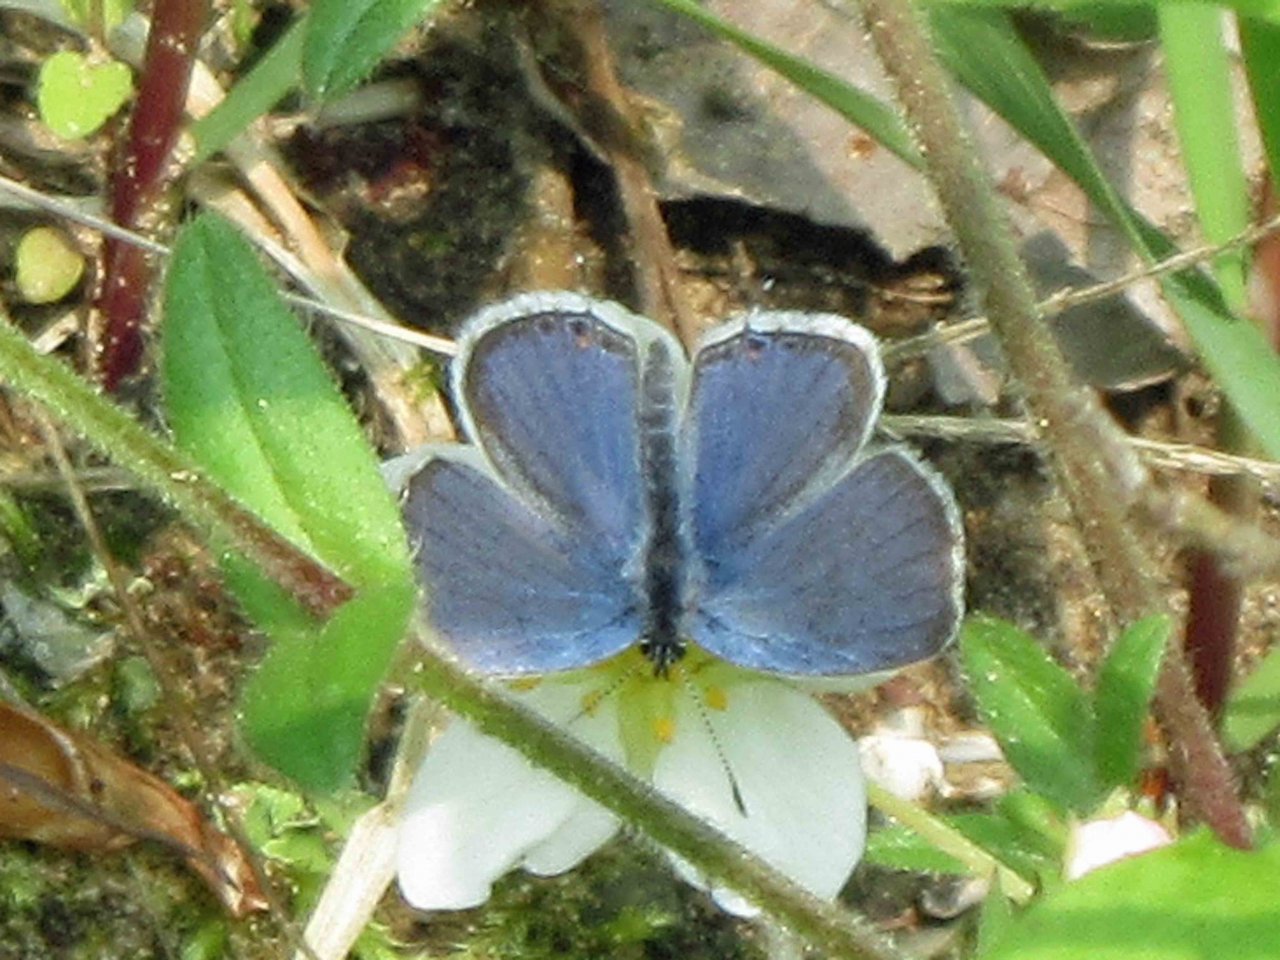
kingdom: Animalia
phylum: Arthropoda
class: Insecta
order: Lepidoptera
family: Lycaenidae
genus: Elkalyce
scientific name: Elkalyce comyntas
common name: Eastern Tailed-Blue
